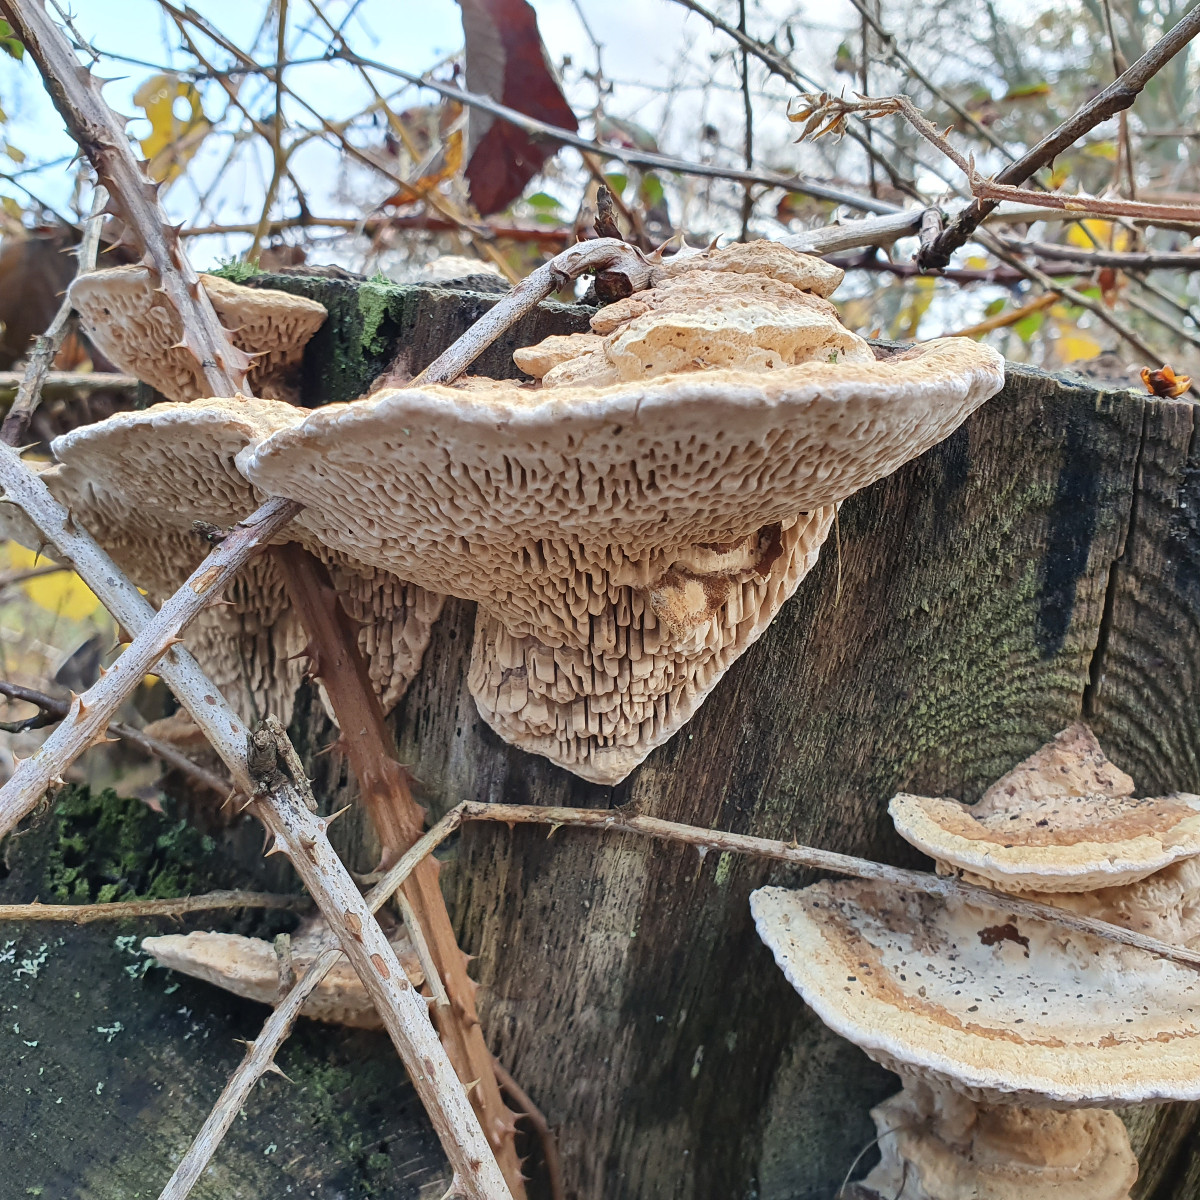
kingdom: Fungi
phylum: Basidiomycota
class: Agaricomycetes
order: Polyporales
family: Fomitopsidaceae
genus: Daedalea
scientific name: Daedalea quercina
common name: ege-labyrintsvamp
